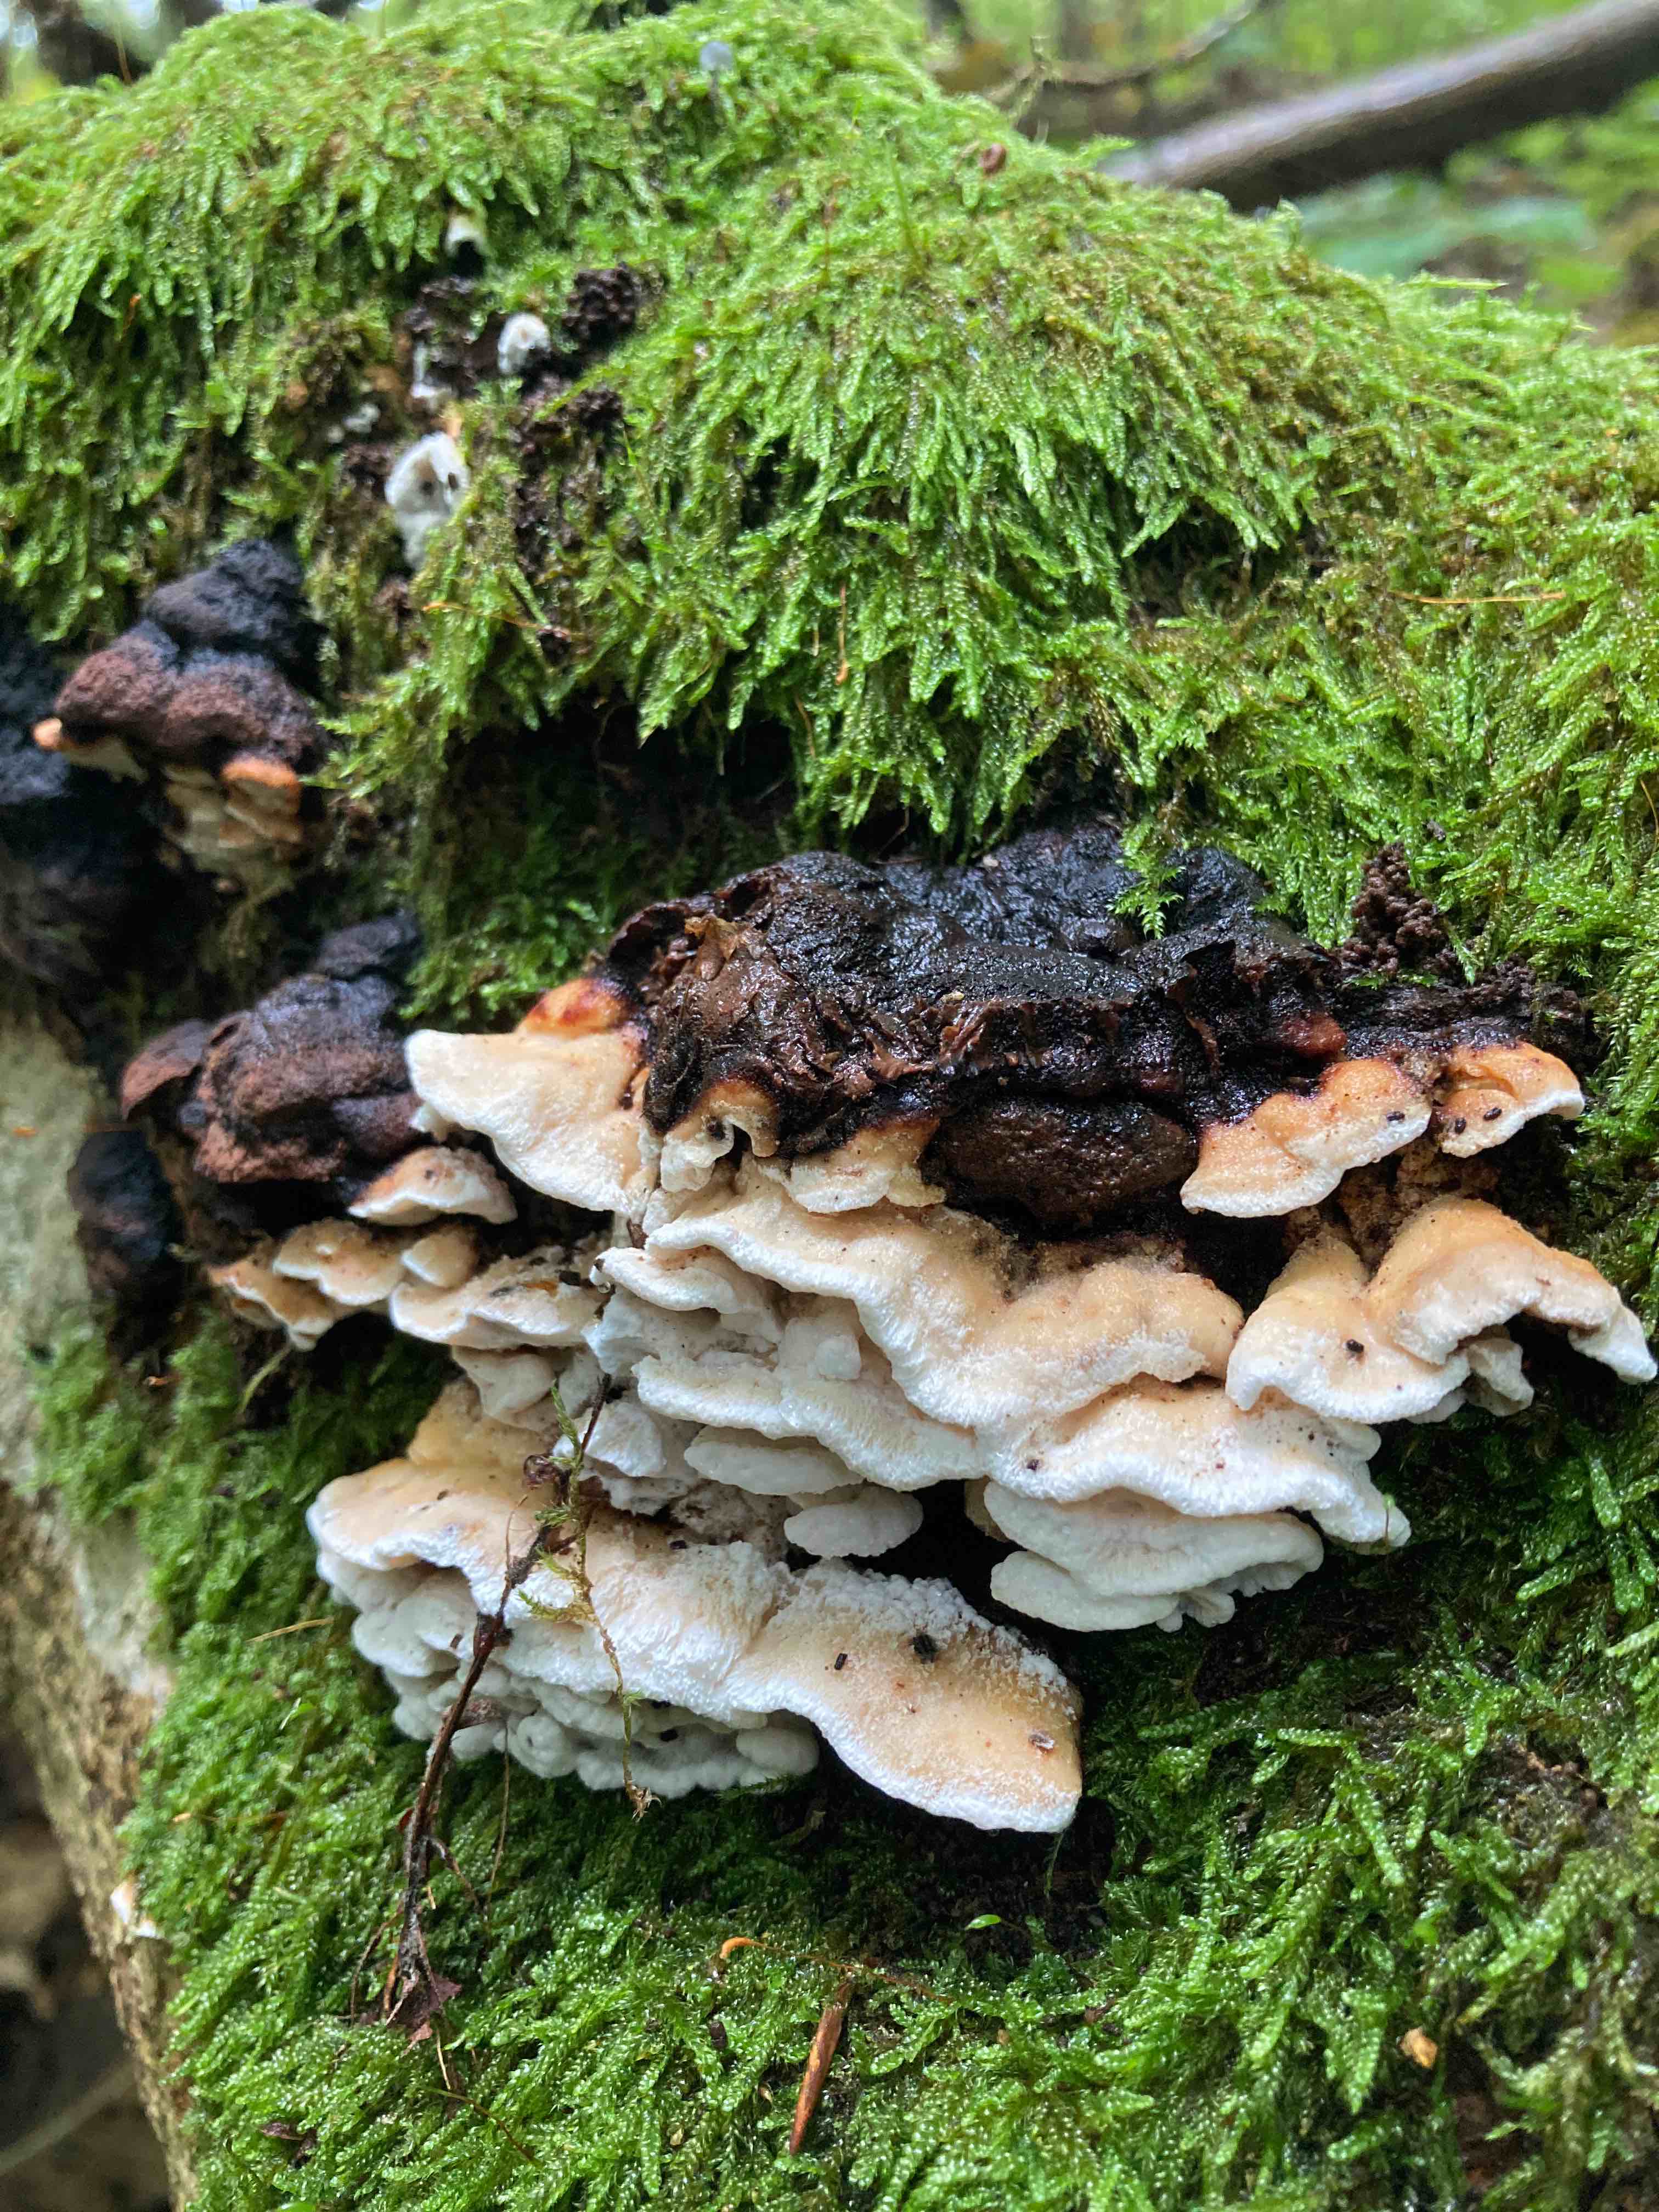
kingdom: Fungi
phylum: Basidiomycota
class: Agaricomycetes
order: Polyporales
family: Incrustoporiaceae
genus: Skeletocutis
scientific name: Skeletocutis nemoralis
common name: stor krystalporesvamp
